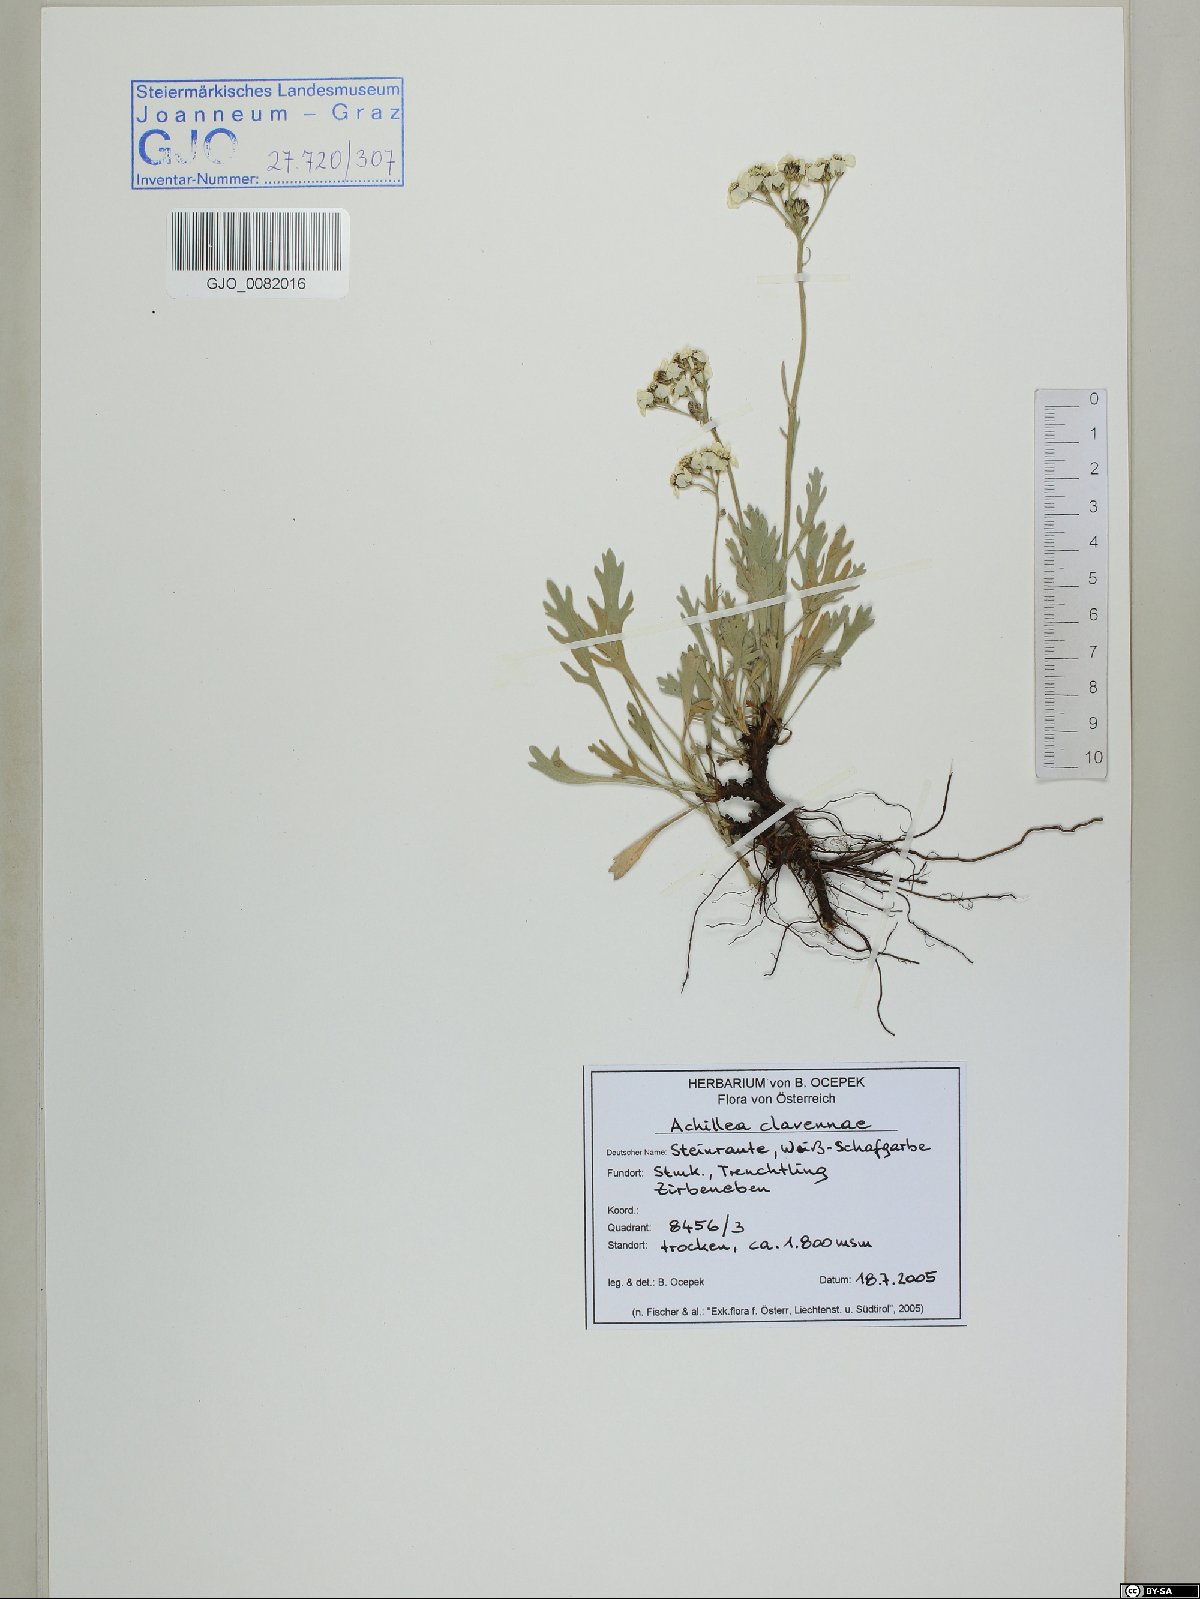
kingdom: Plantae
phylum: Tracheophyta
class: Magnoliopsida
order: Asterales
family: Asteraceae
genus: Achillea
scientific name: Achillea clavennae
